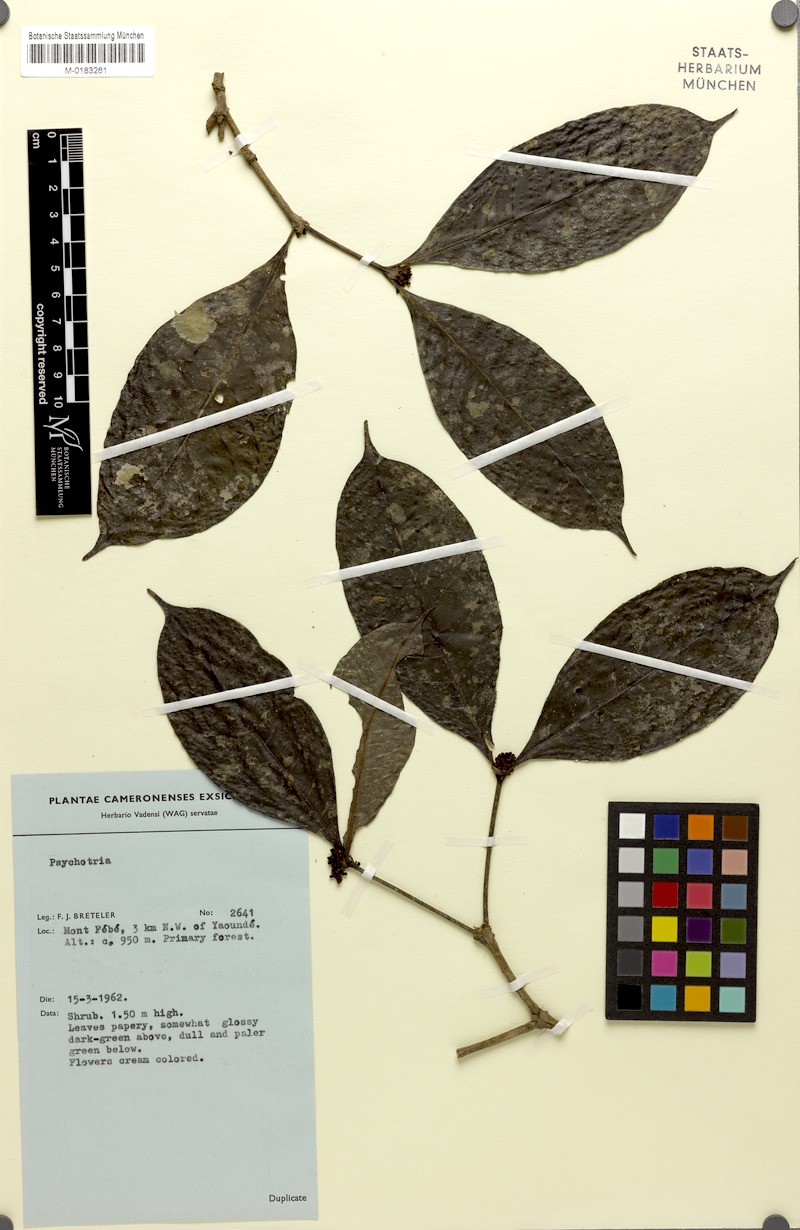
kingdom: Plantae
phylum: Tracheophyta
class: Magnoliopsida
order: Gentianales
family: Rubiaceae
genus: Eumachia
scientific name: Eumachia sciadephora
